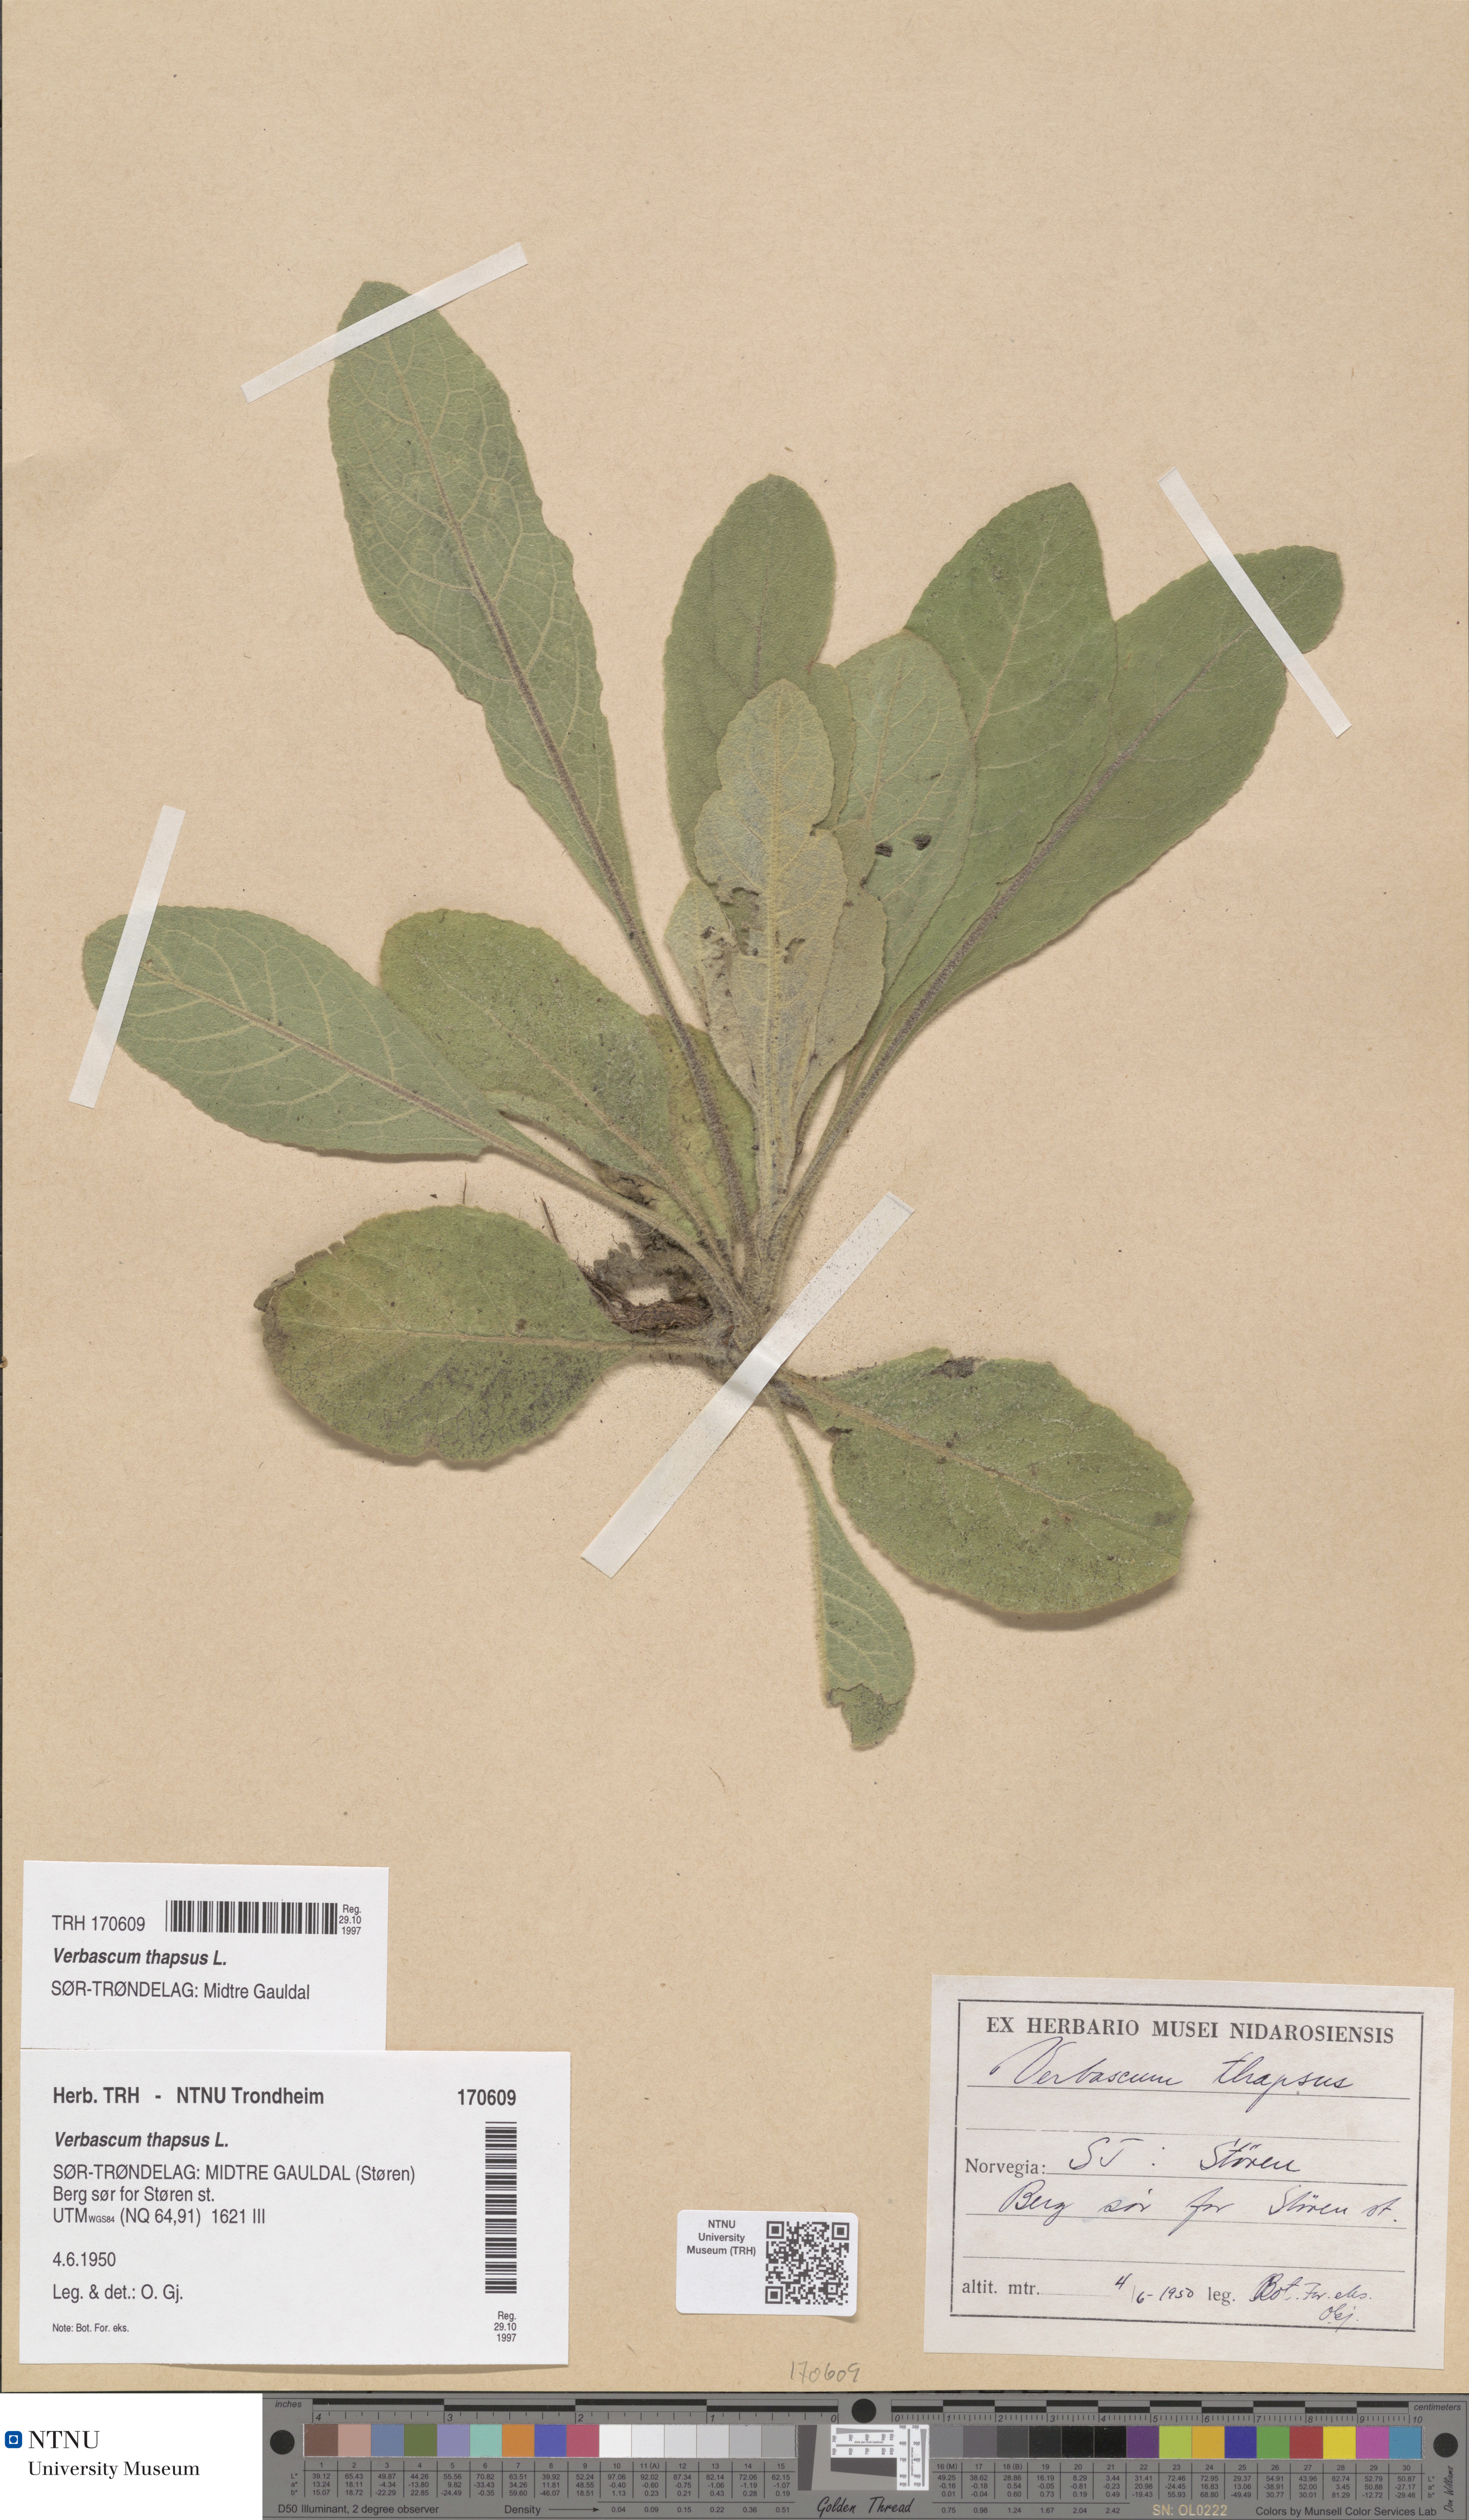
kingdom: Plantae
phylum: Tracheophyta
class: Magnoliopsida
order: Lamiales
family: Scrophulariaceae
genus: Verbascum
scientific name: Verbascum thapsus
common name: Common mullein
